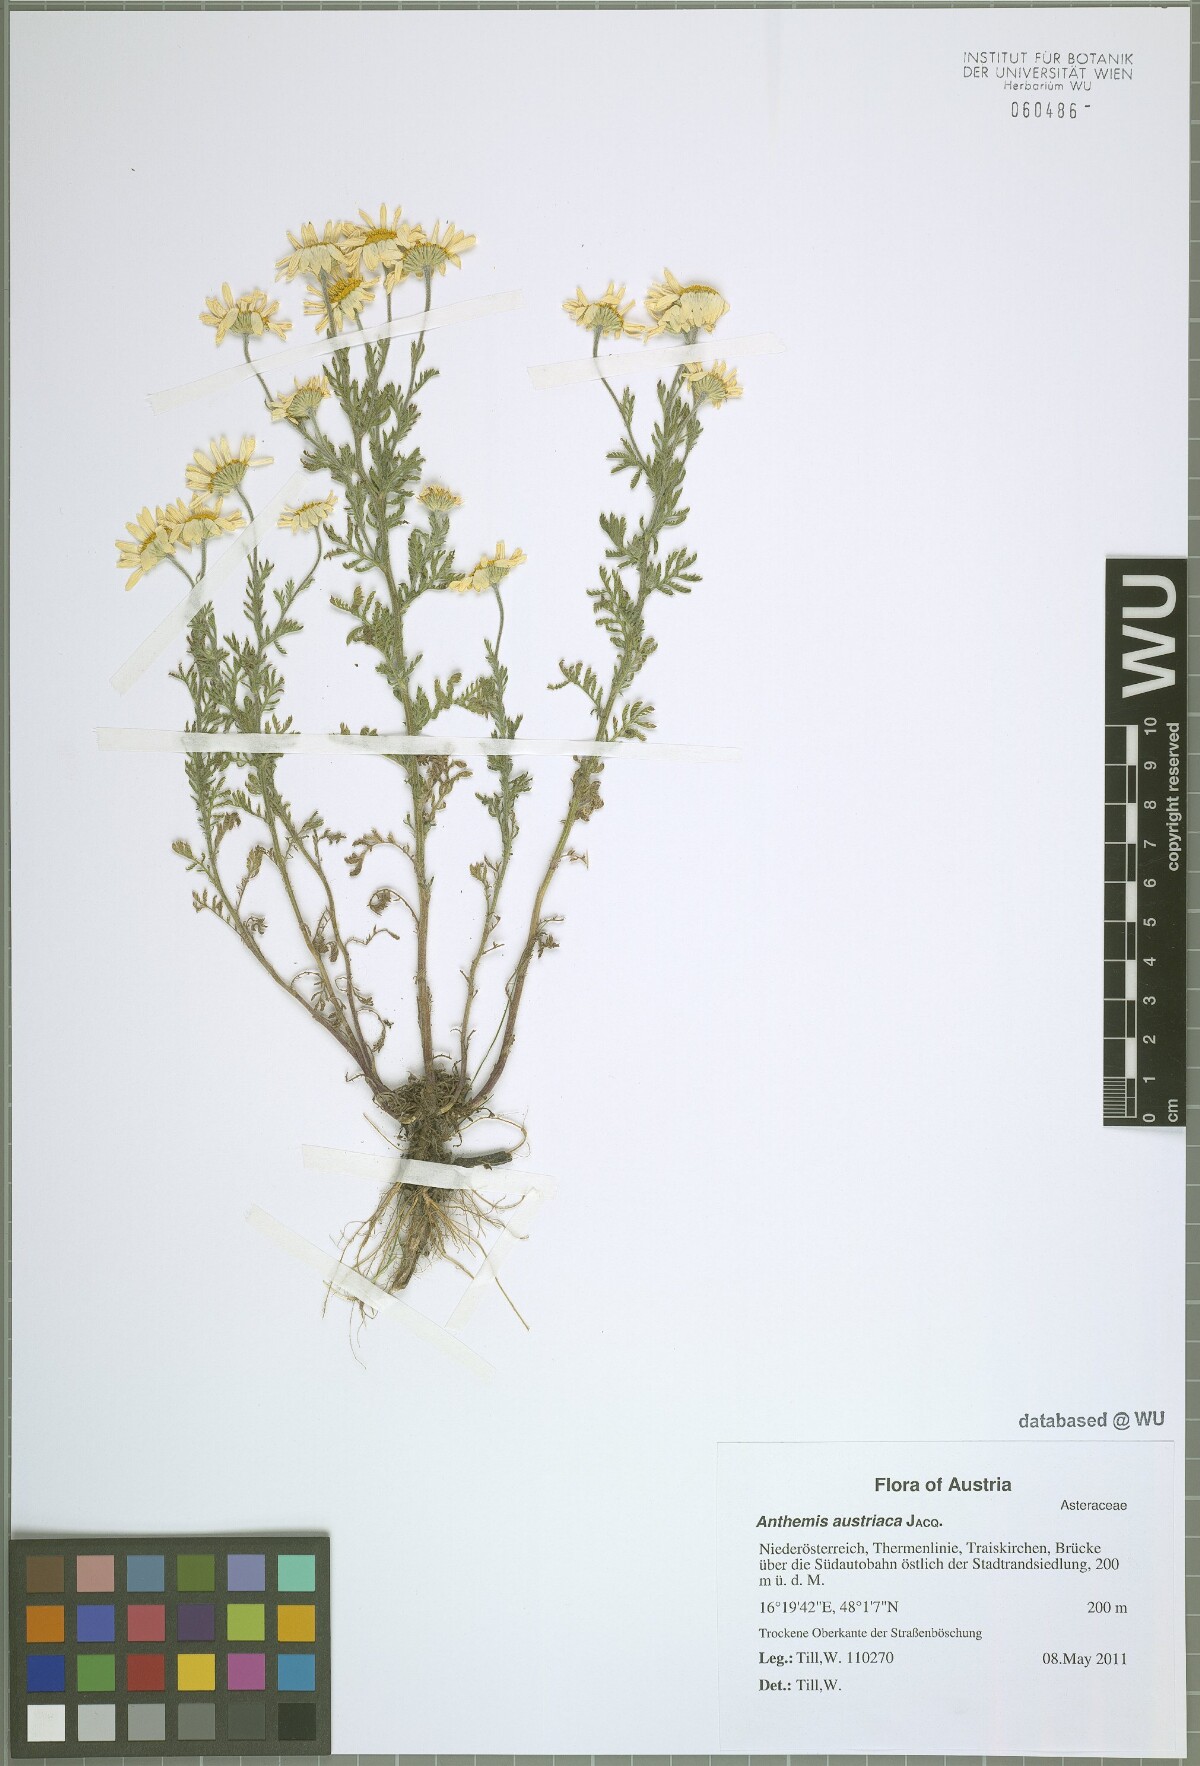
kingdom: Plantae
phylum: Tracheophyta
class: Magnoliopsida
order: Asterales
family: Asteraceae
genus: Cota
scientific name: Cota austriaca
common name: Austrian chamomile
